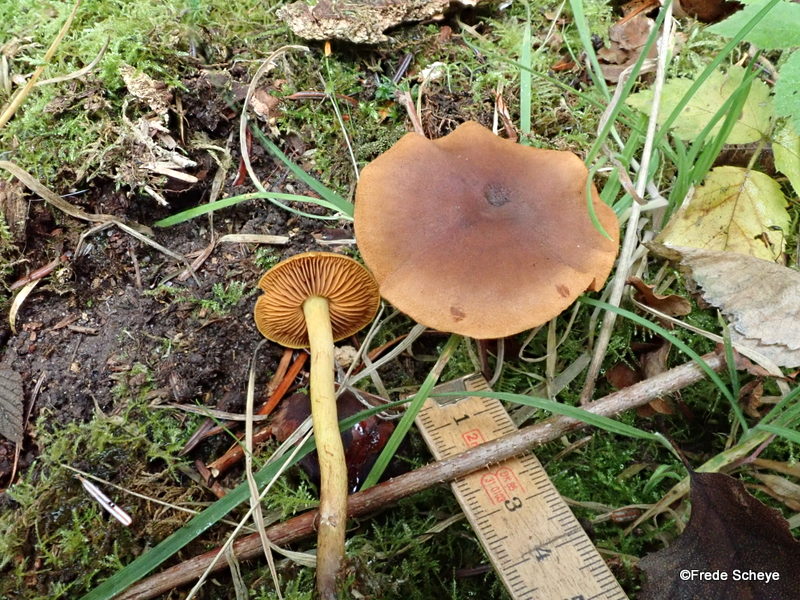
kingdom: Fungi
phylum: Basidiomycota
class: Agaricomycetes
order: Agaricales
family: Cortinariaceae
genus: Cortinarius
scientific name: Cortinarius
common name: gulbladet slørhat
